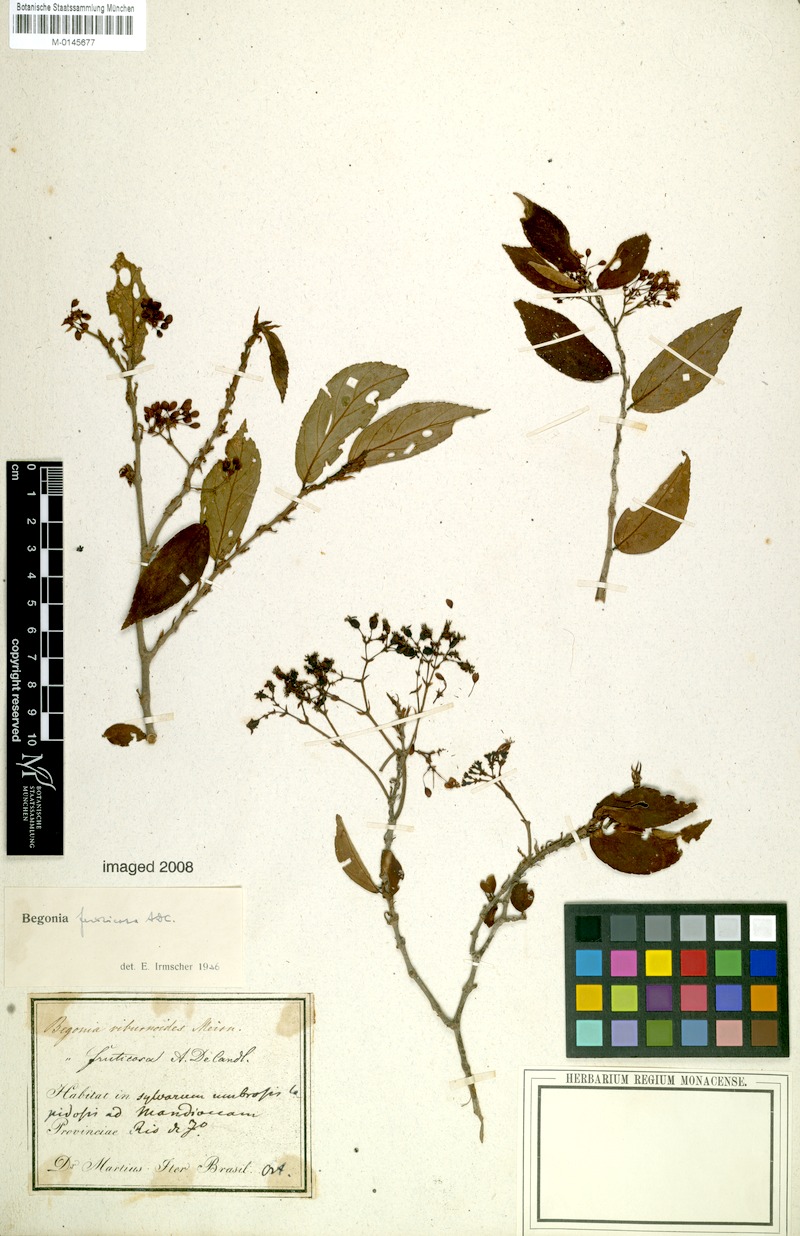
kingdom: Plantae
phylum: Tracheophyta
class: Magnoliopsida
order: Cucurbitales
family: Begoniaceae
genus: Begonia
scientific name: Begonia fruticosa
